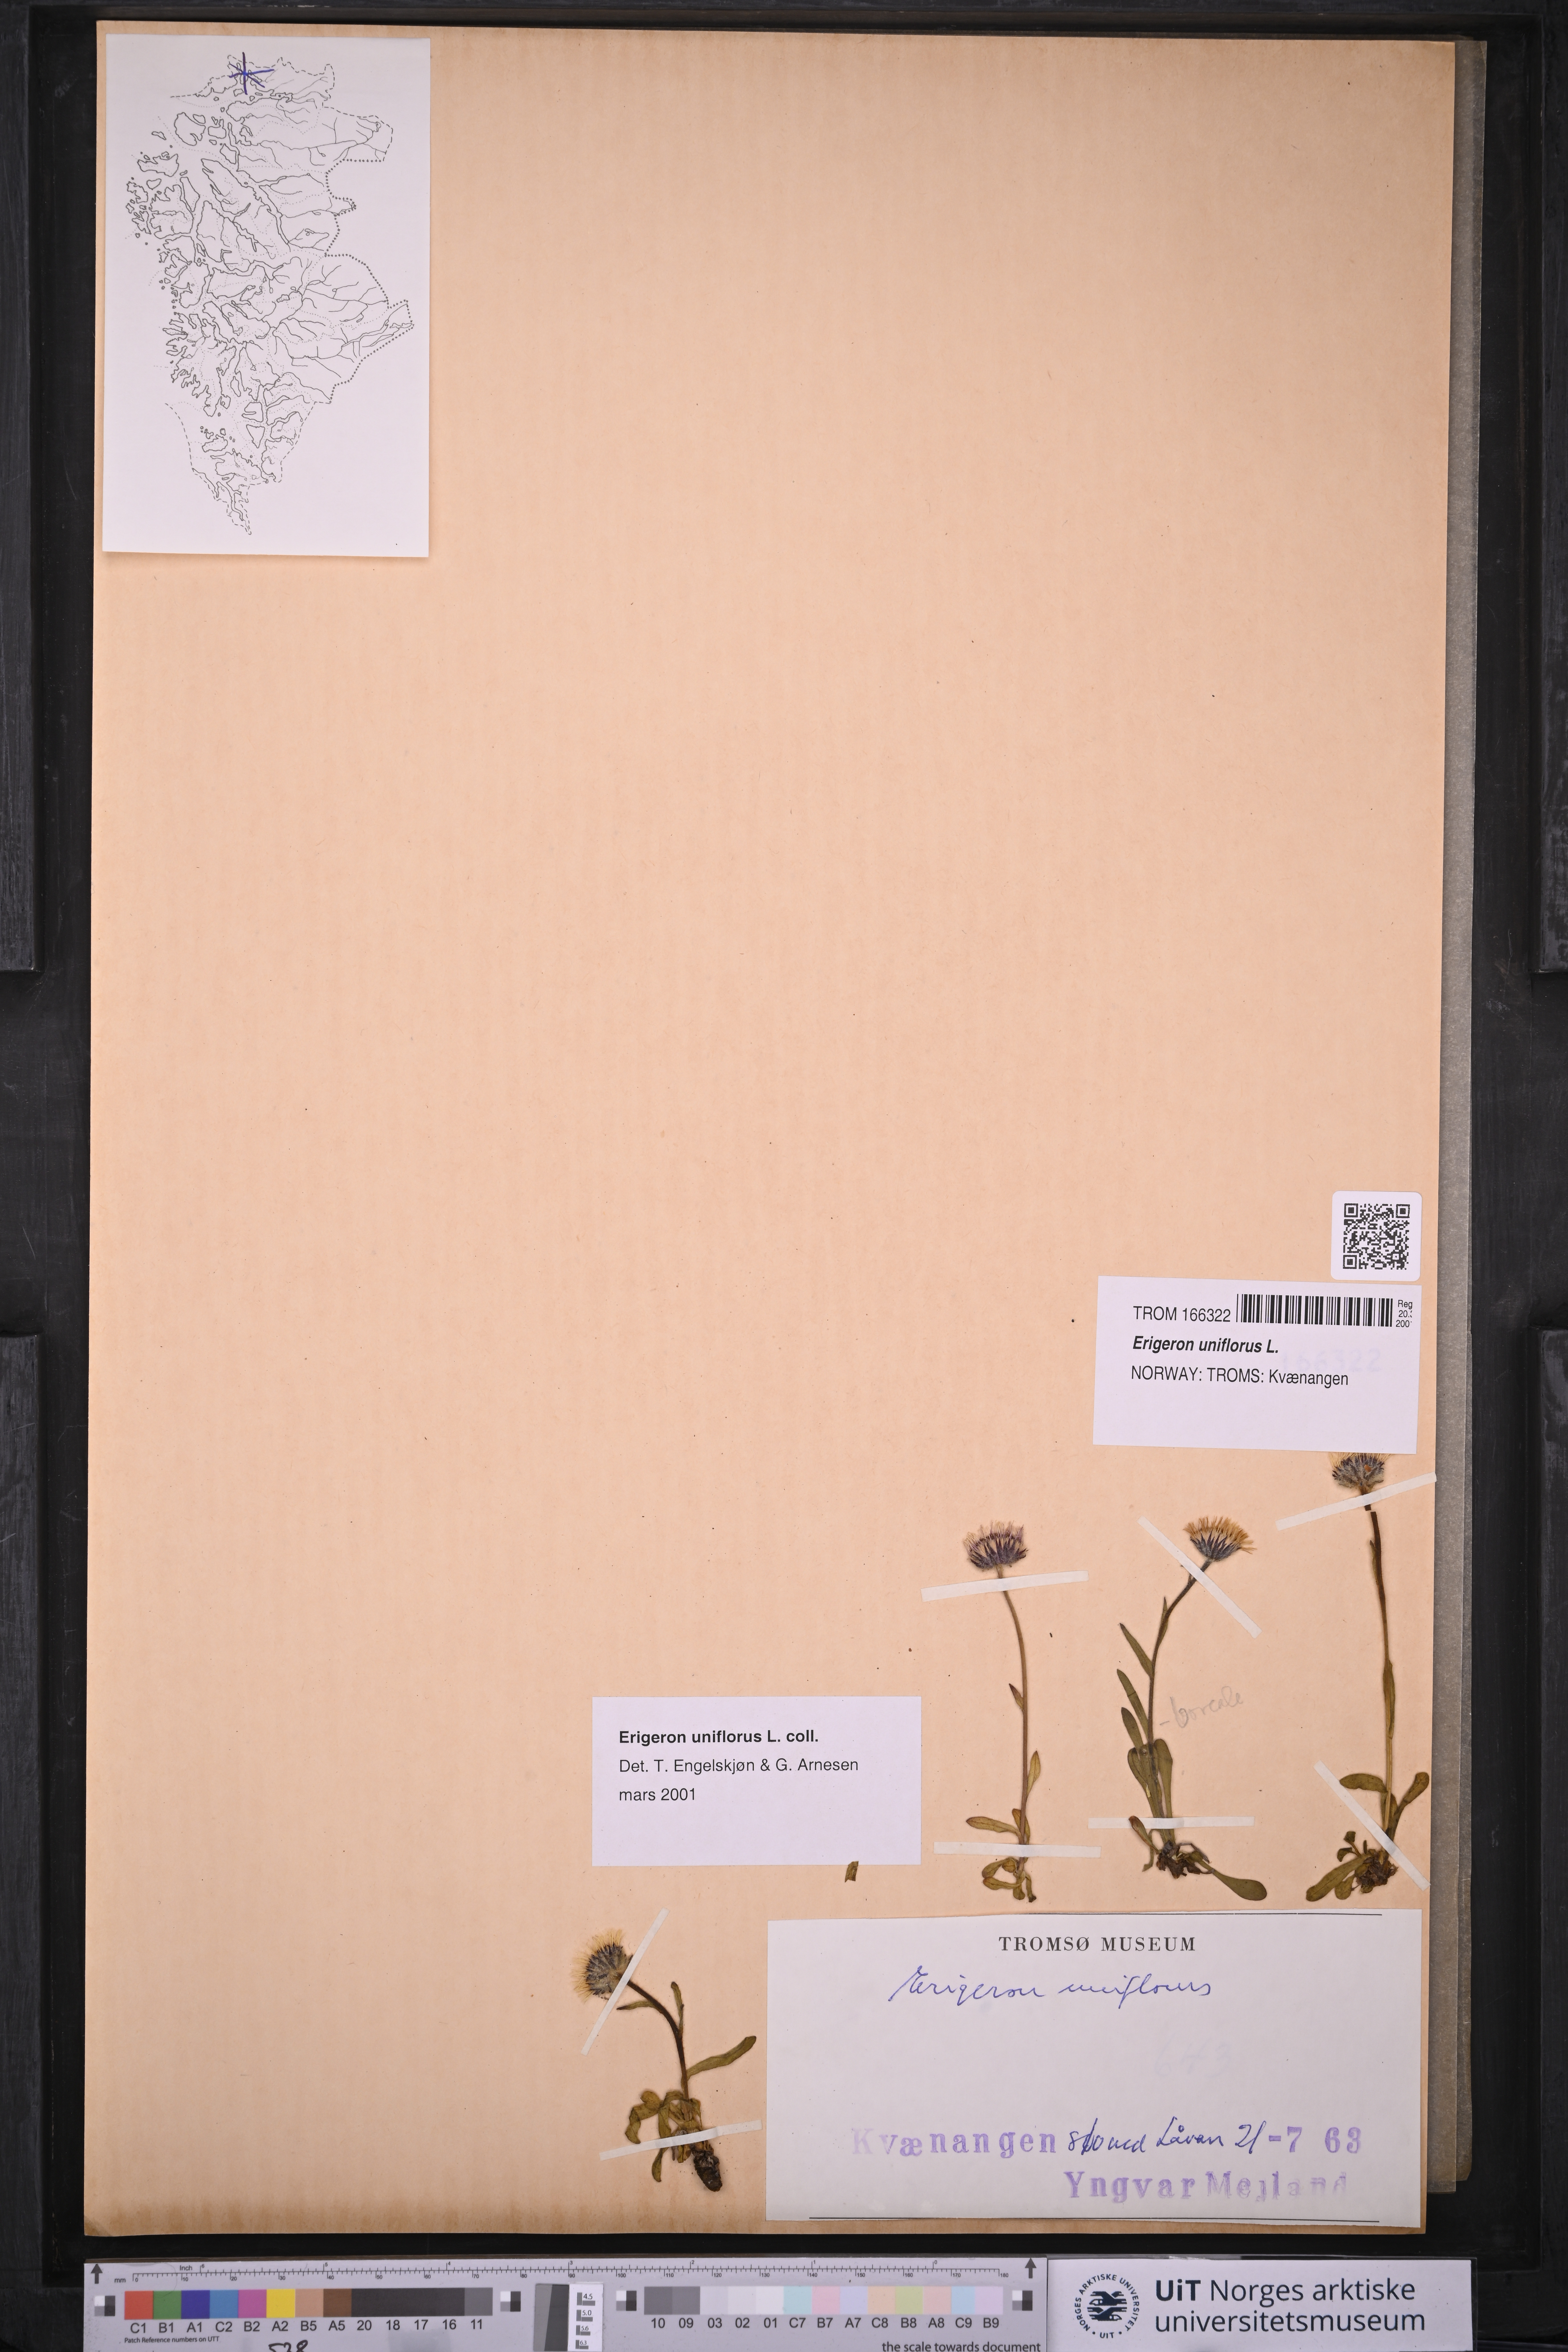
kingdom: Plantae
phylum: Tracheophyta
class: Magnoliopsida
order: Asterales
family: Asteraceae
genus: Erigeron
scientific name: Erigeron uniflorus
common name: Northern daisy
